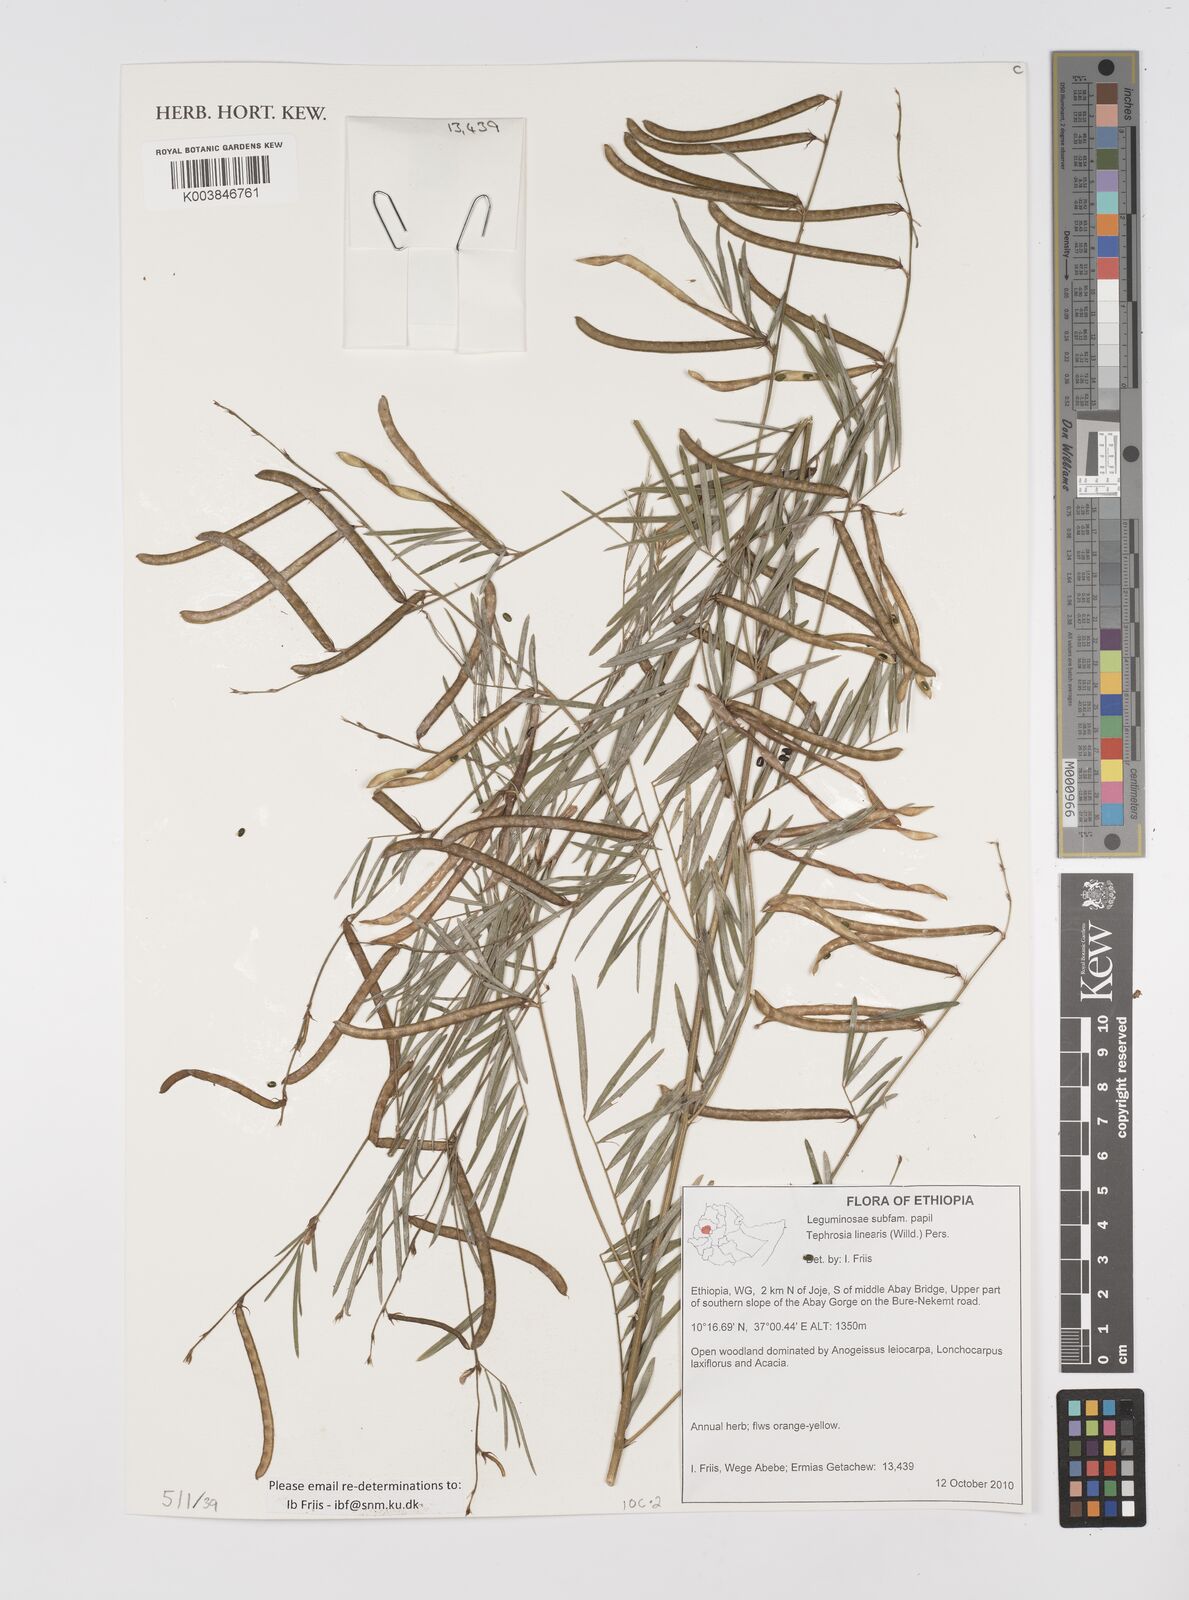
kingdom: Plantae
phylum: Tracheophyta
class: Magnoliopsida
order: Fabales
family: Fabaceae
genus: Tephrosia
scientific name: Tephrosia linearis
